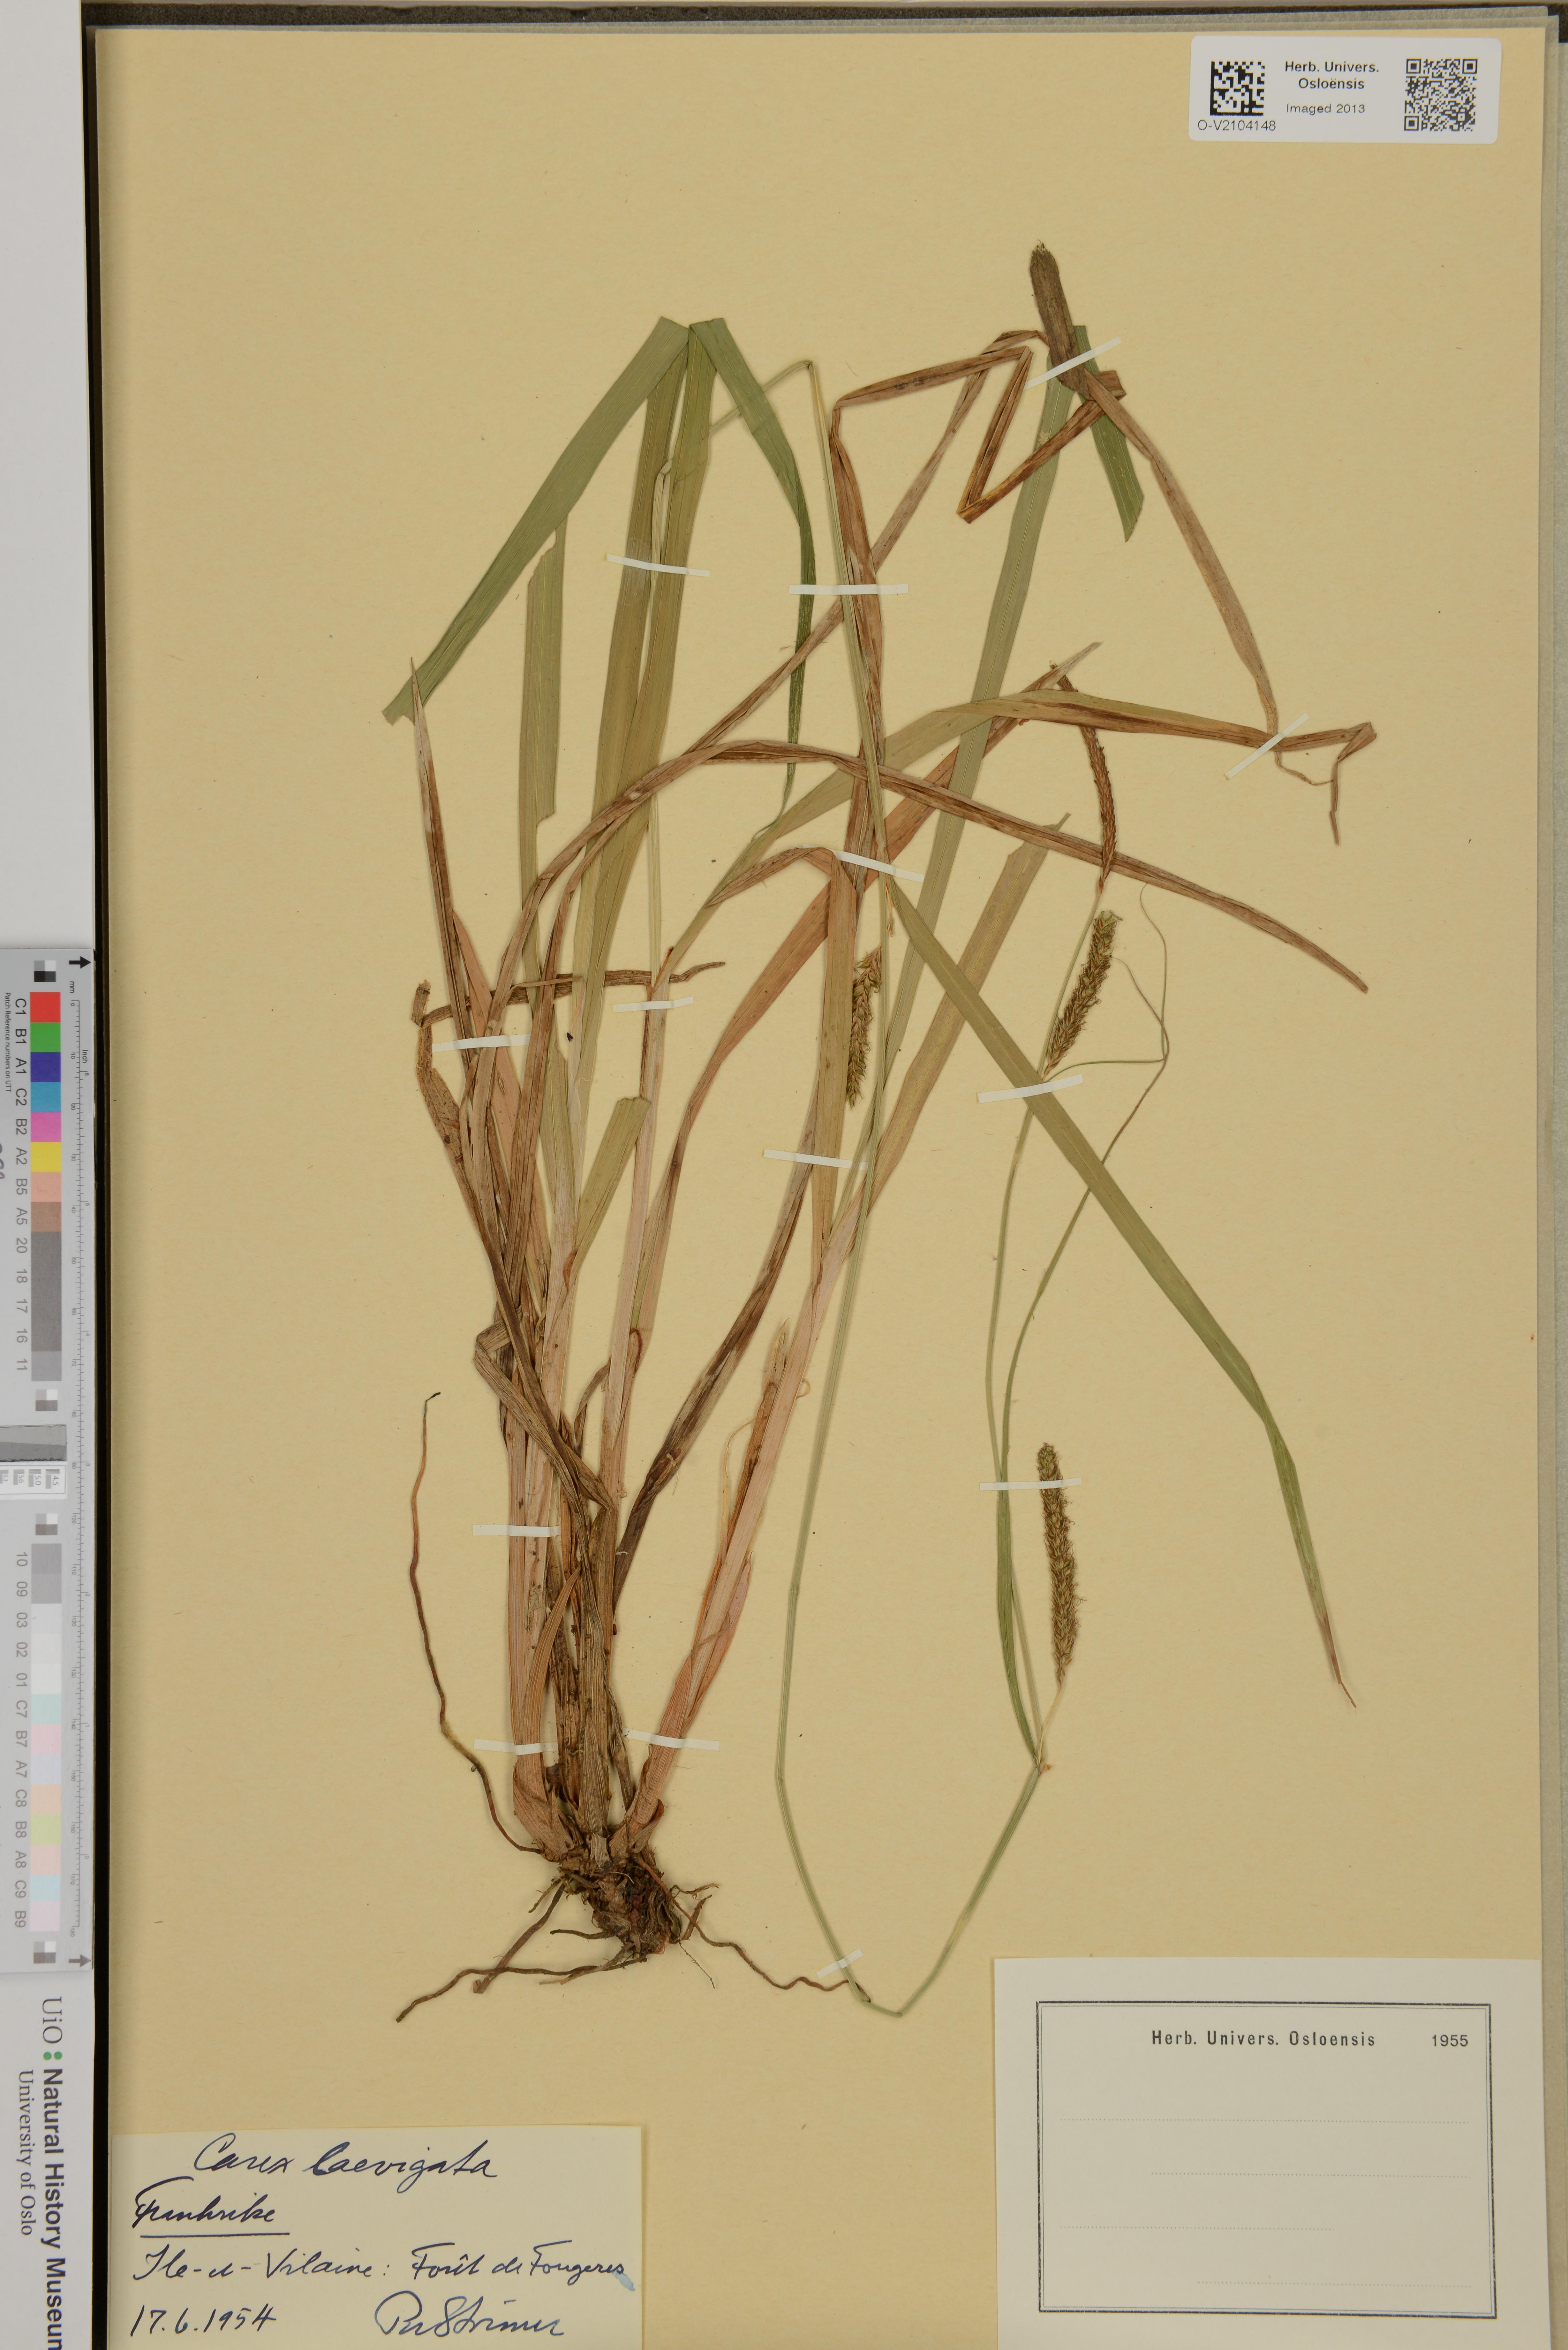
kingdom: Plantae
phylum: Tracheophyta
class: Liliopsida
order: Poales
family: Cyperaceae
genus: Carex
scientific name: Carex laevigata
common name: Smooth-stalked sedge
